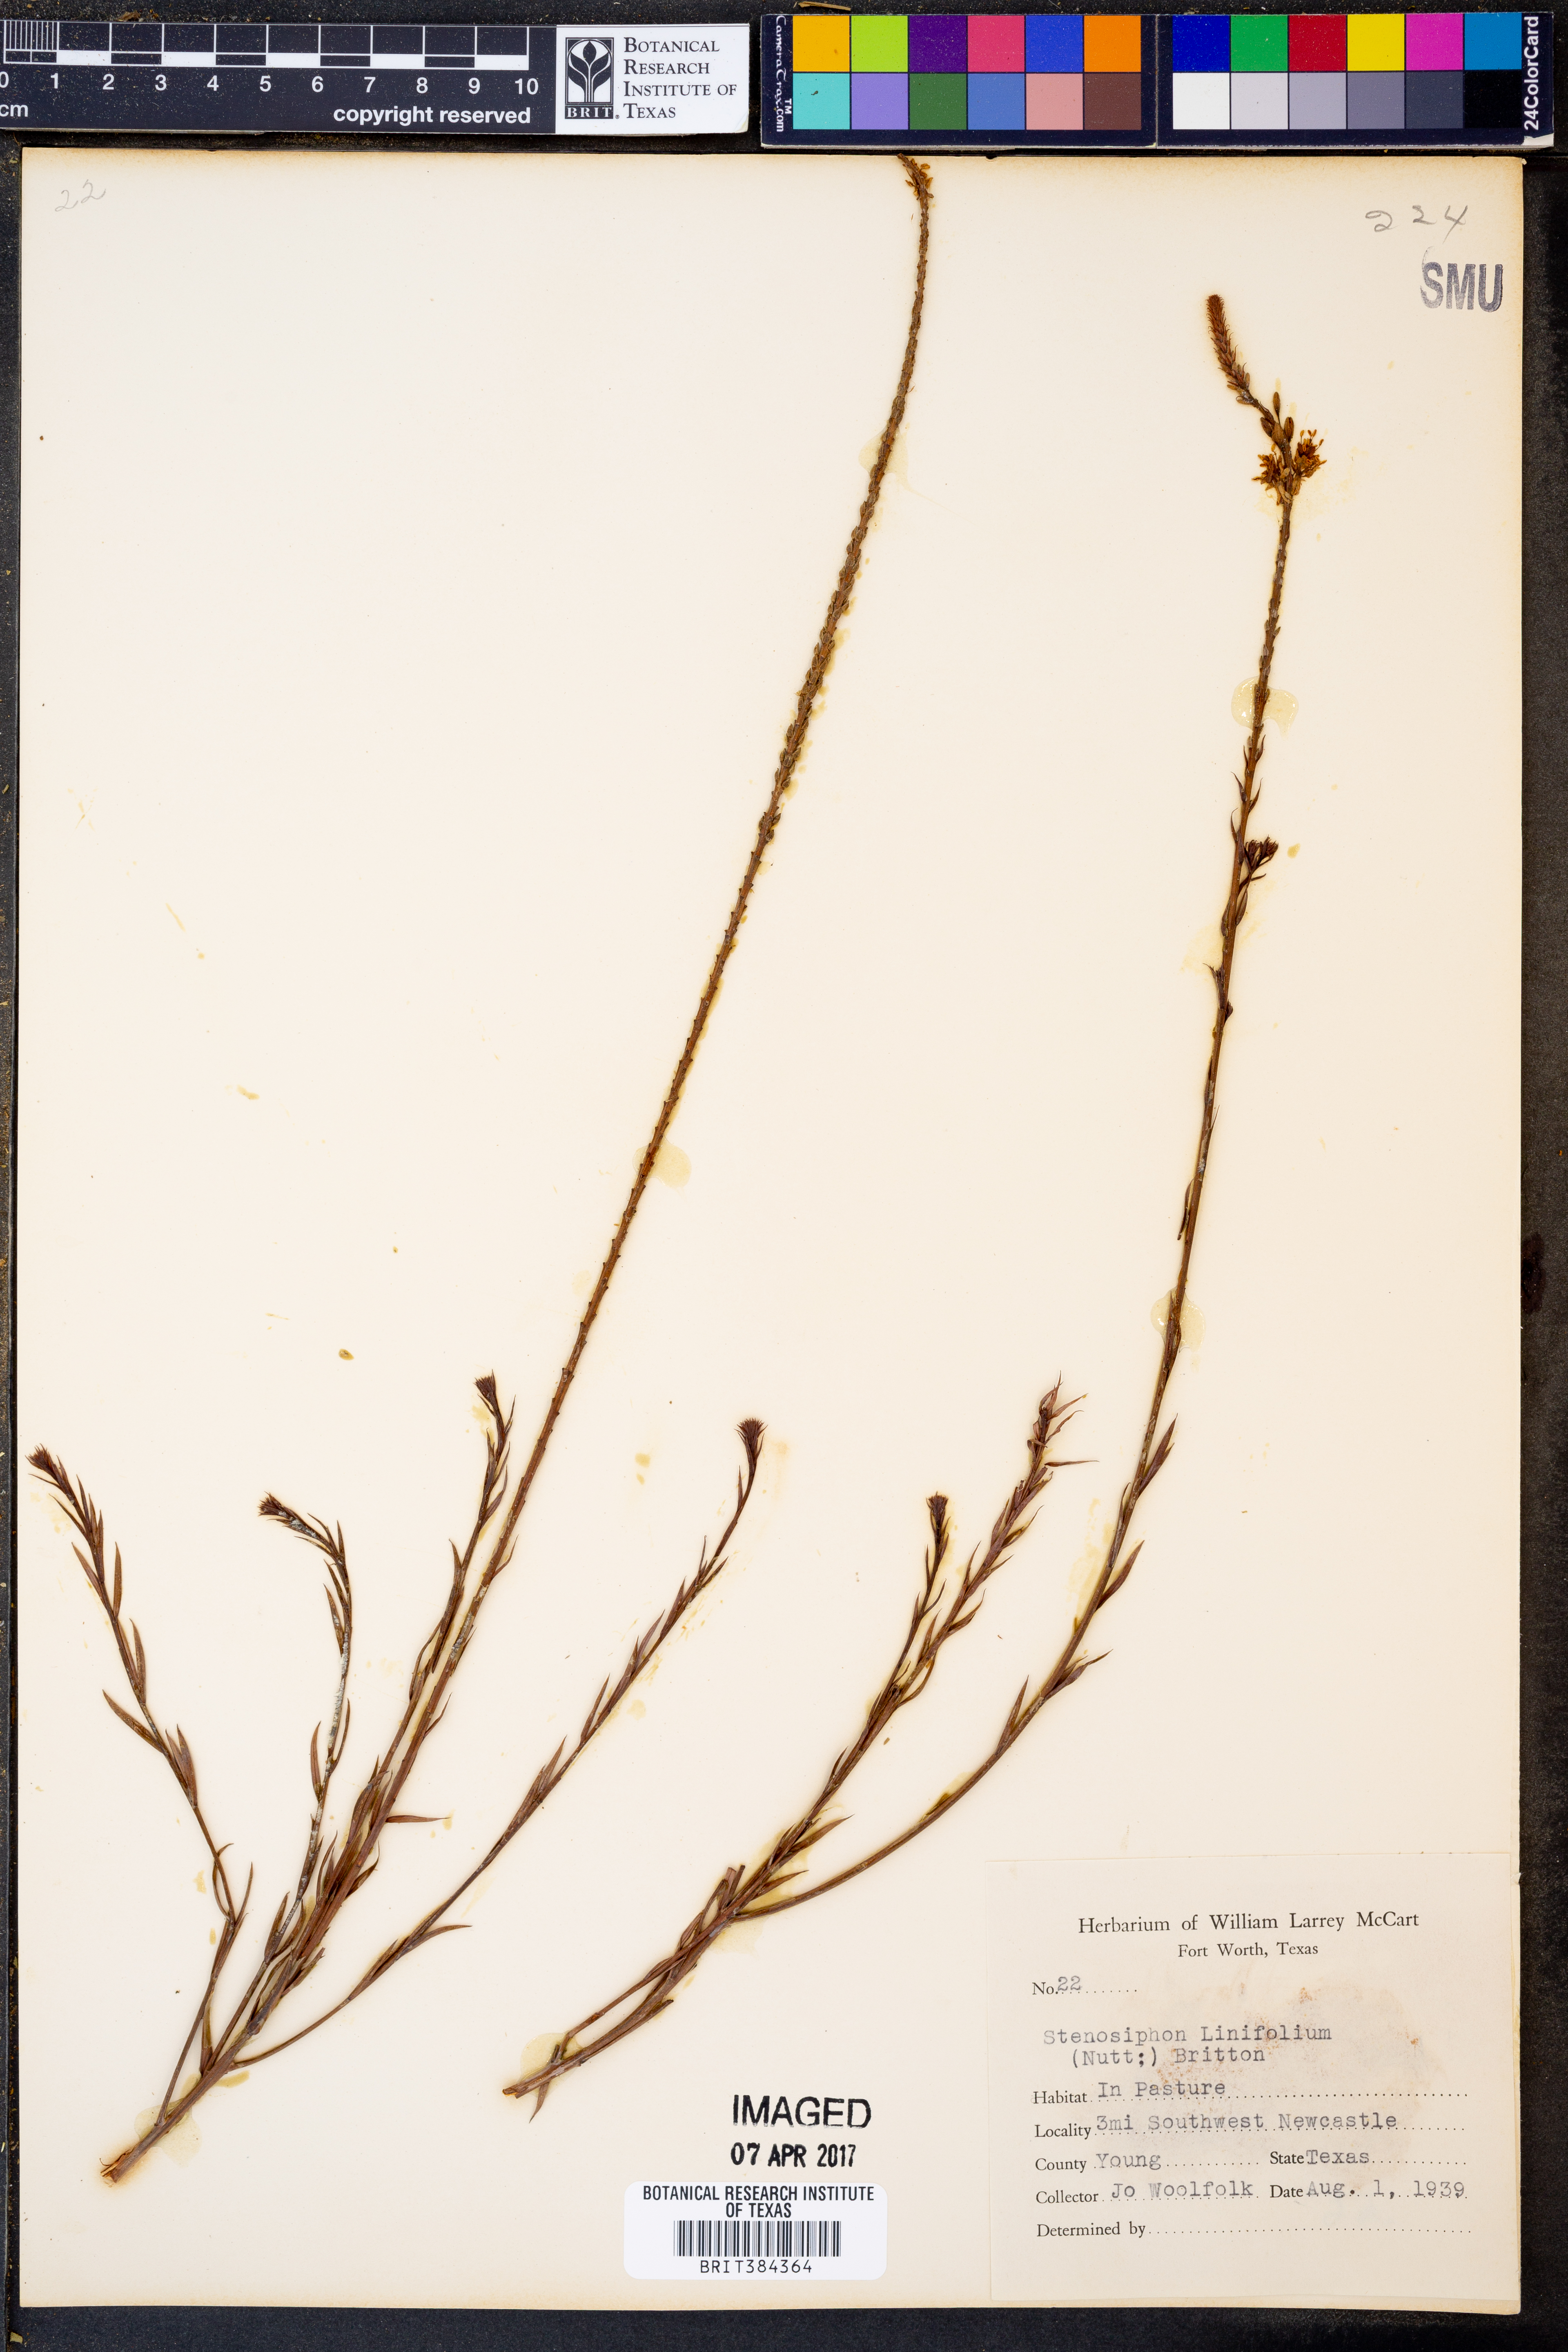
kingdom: Plantae
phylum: Tracheophyta
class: Magnoliopsida
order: Myrtales
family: Onagraceae
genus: Oenothera
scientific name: Oenothera glaucifolia
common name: False gaura
